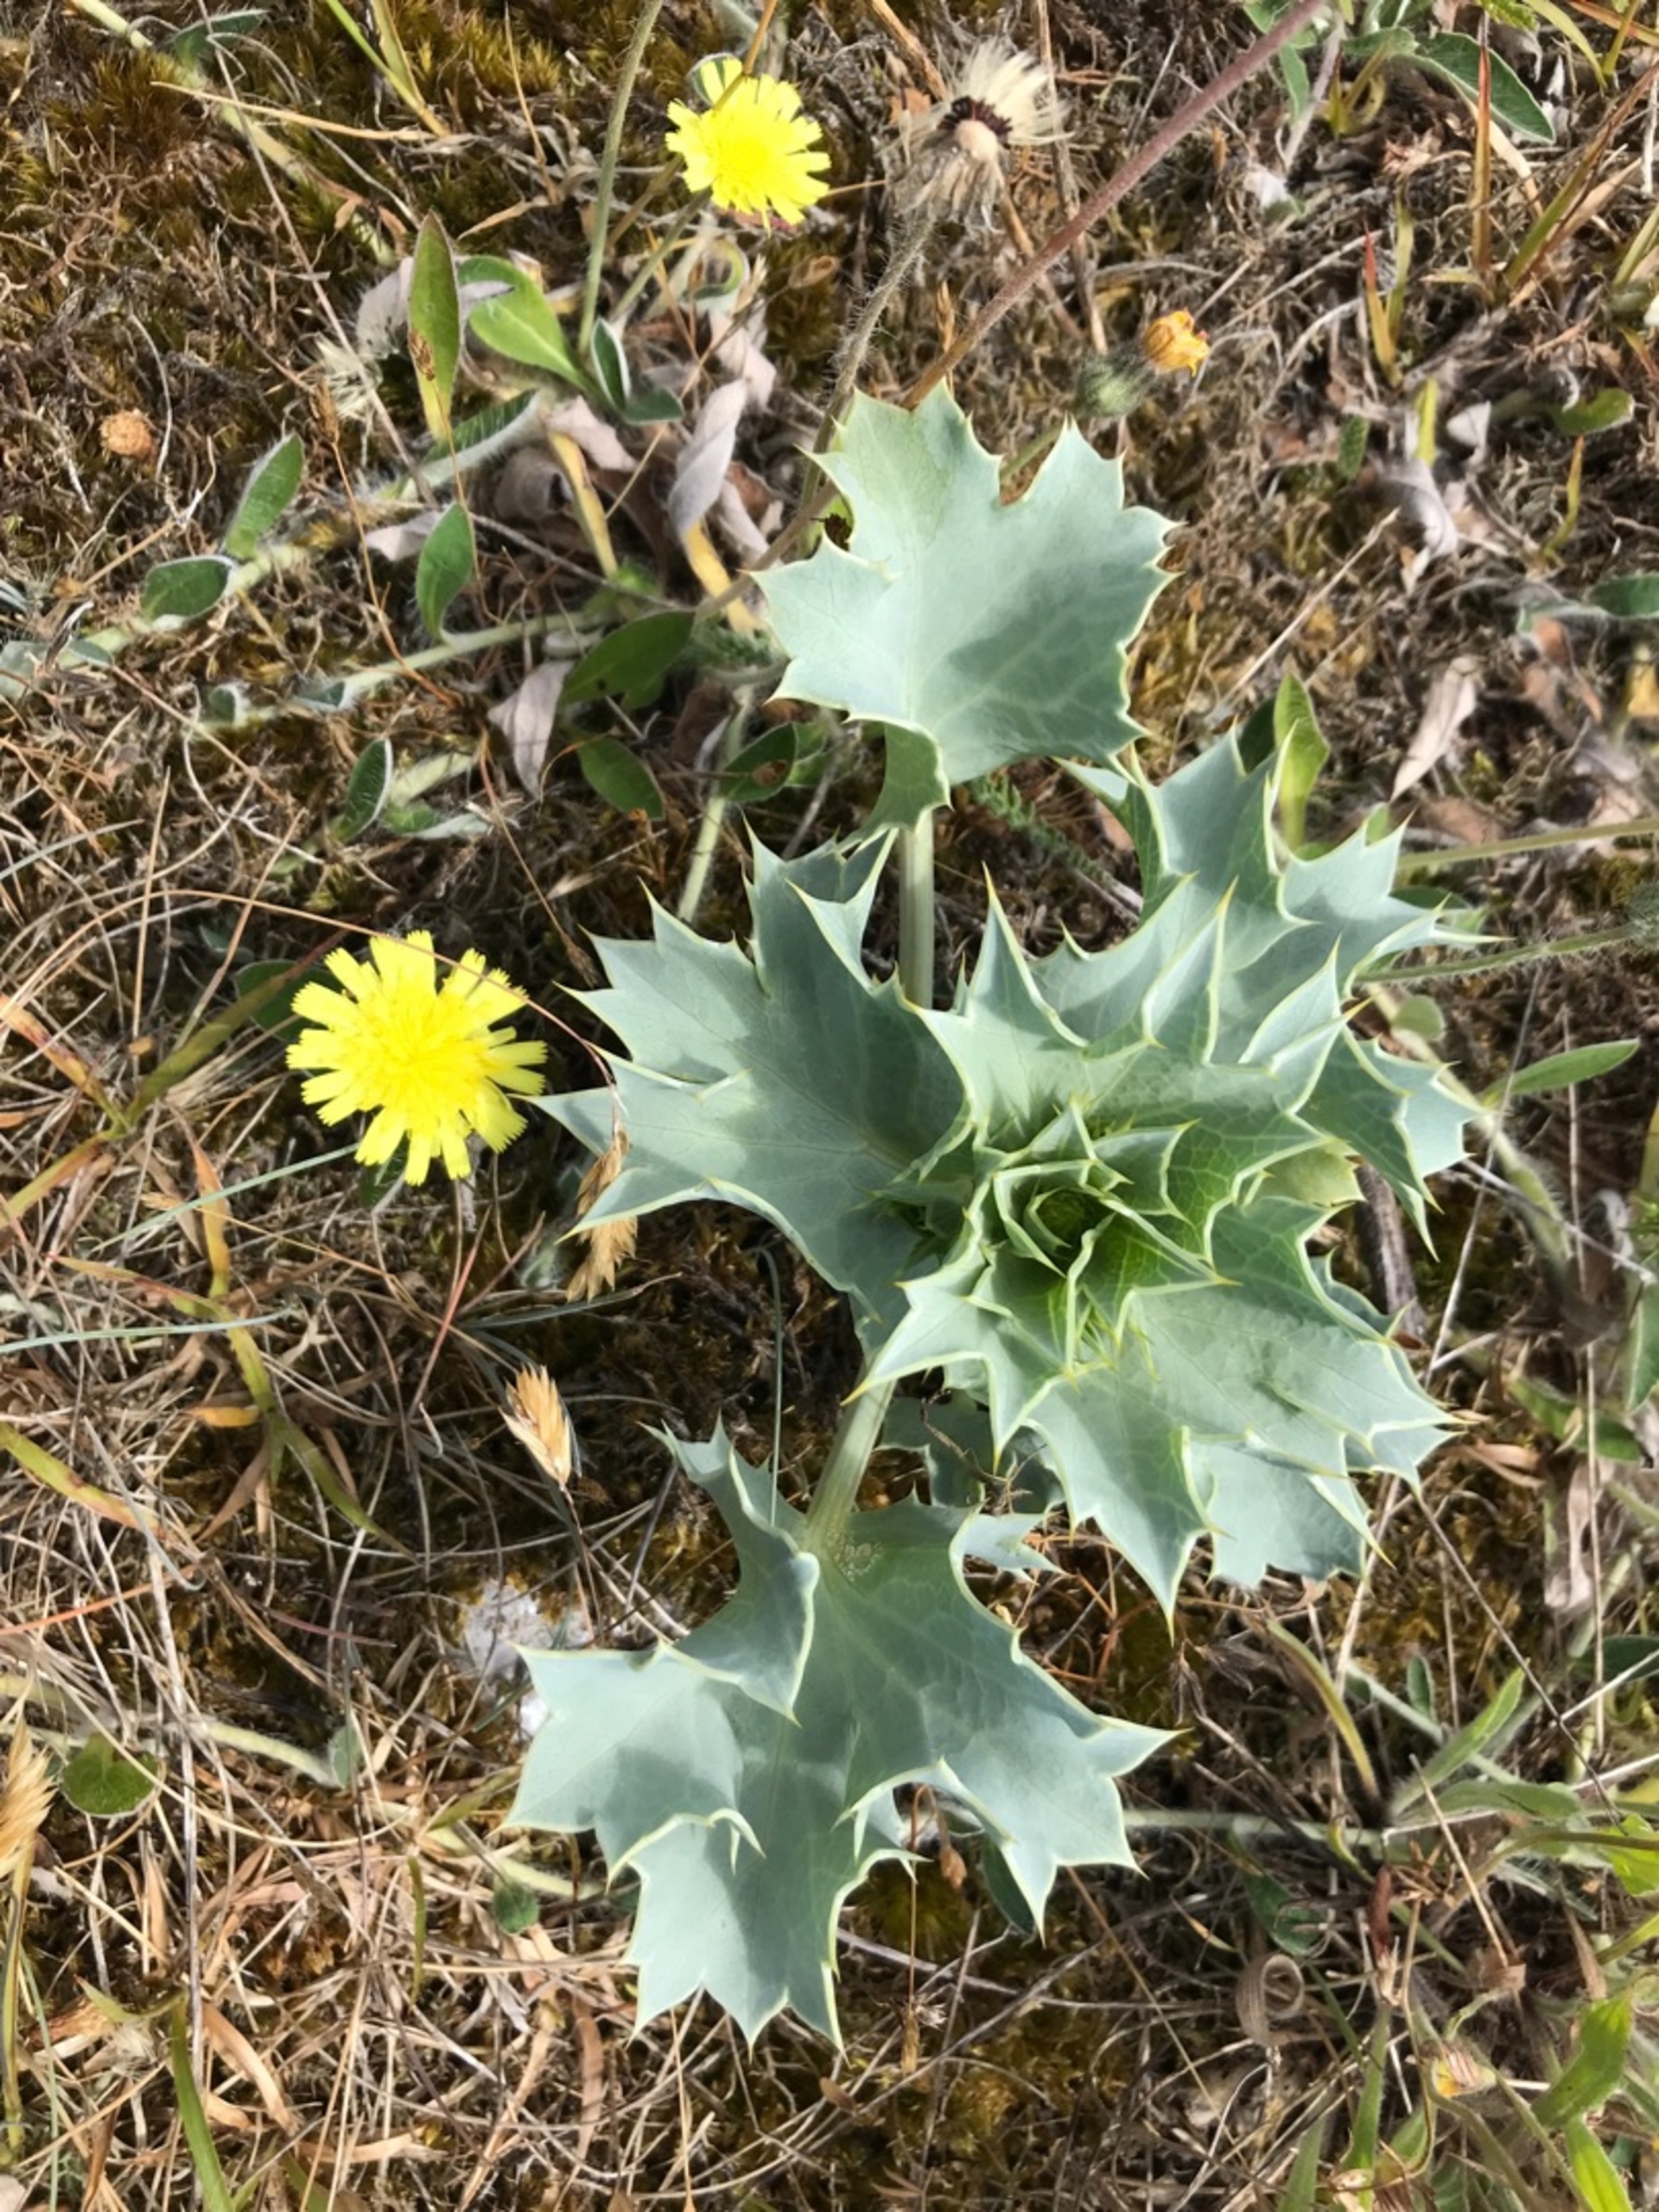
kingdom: Plantae
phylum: Tracheophyta
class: Magnoliopsida
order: Apiales
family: Apiaceae
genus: Eryngium
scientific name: Eryngium maritimum
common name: Strand-mandstro
